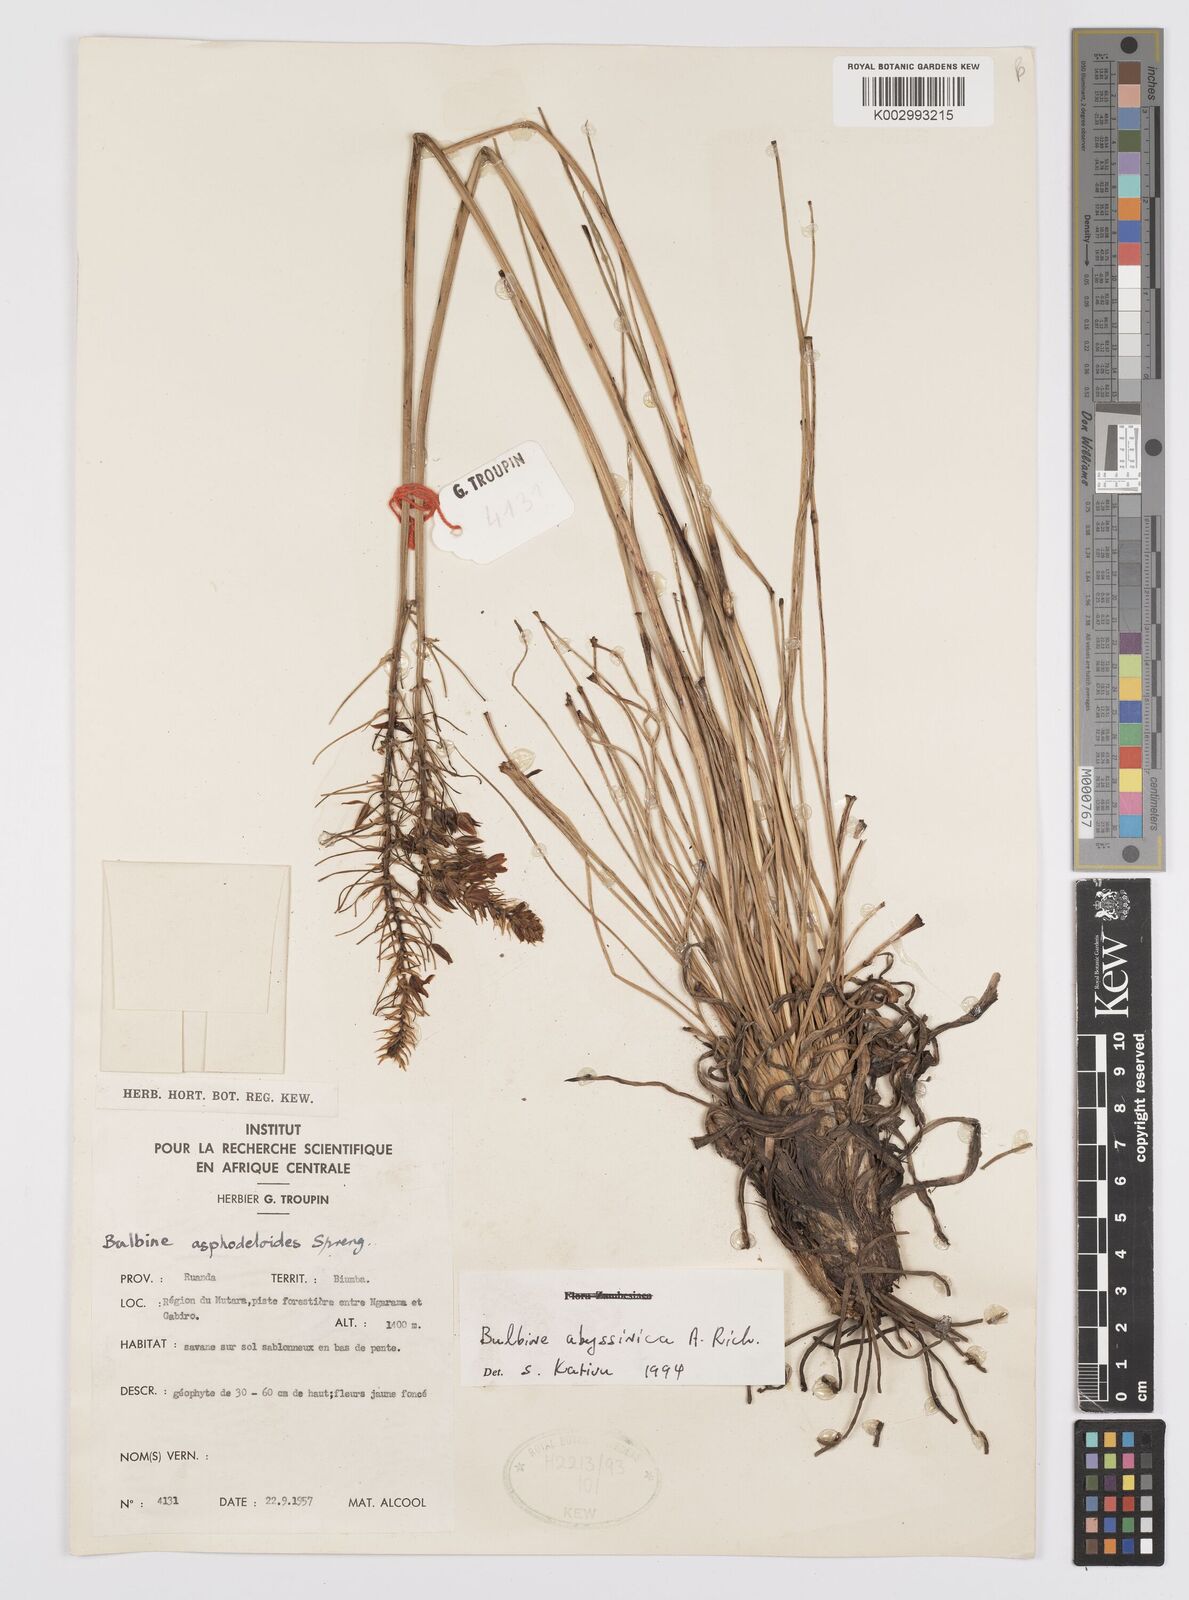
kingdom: Plantae
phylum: Tracheophyta
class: Liliopsida
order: Asparagales
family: Asphodelaceae
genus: Bulbine
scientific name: Bulbine abyssinica
